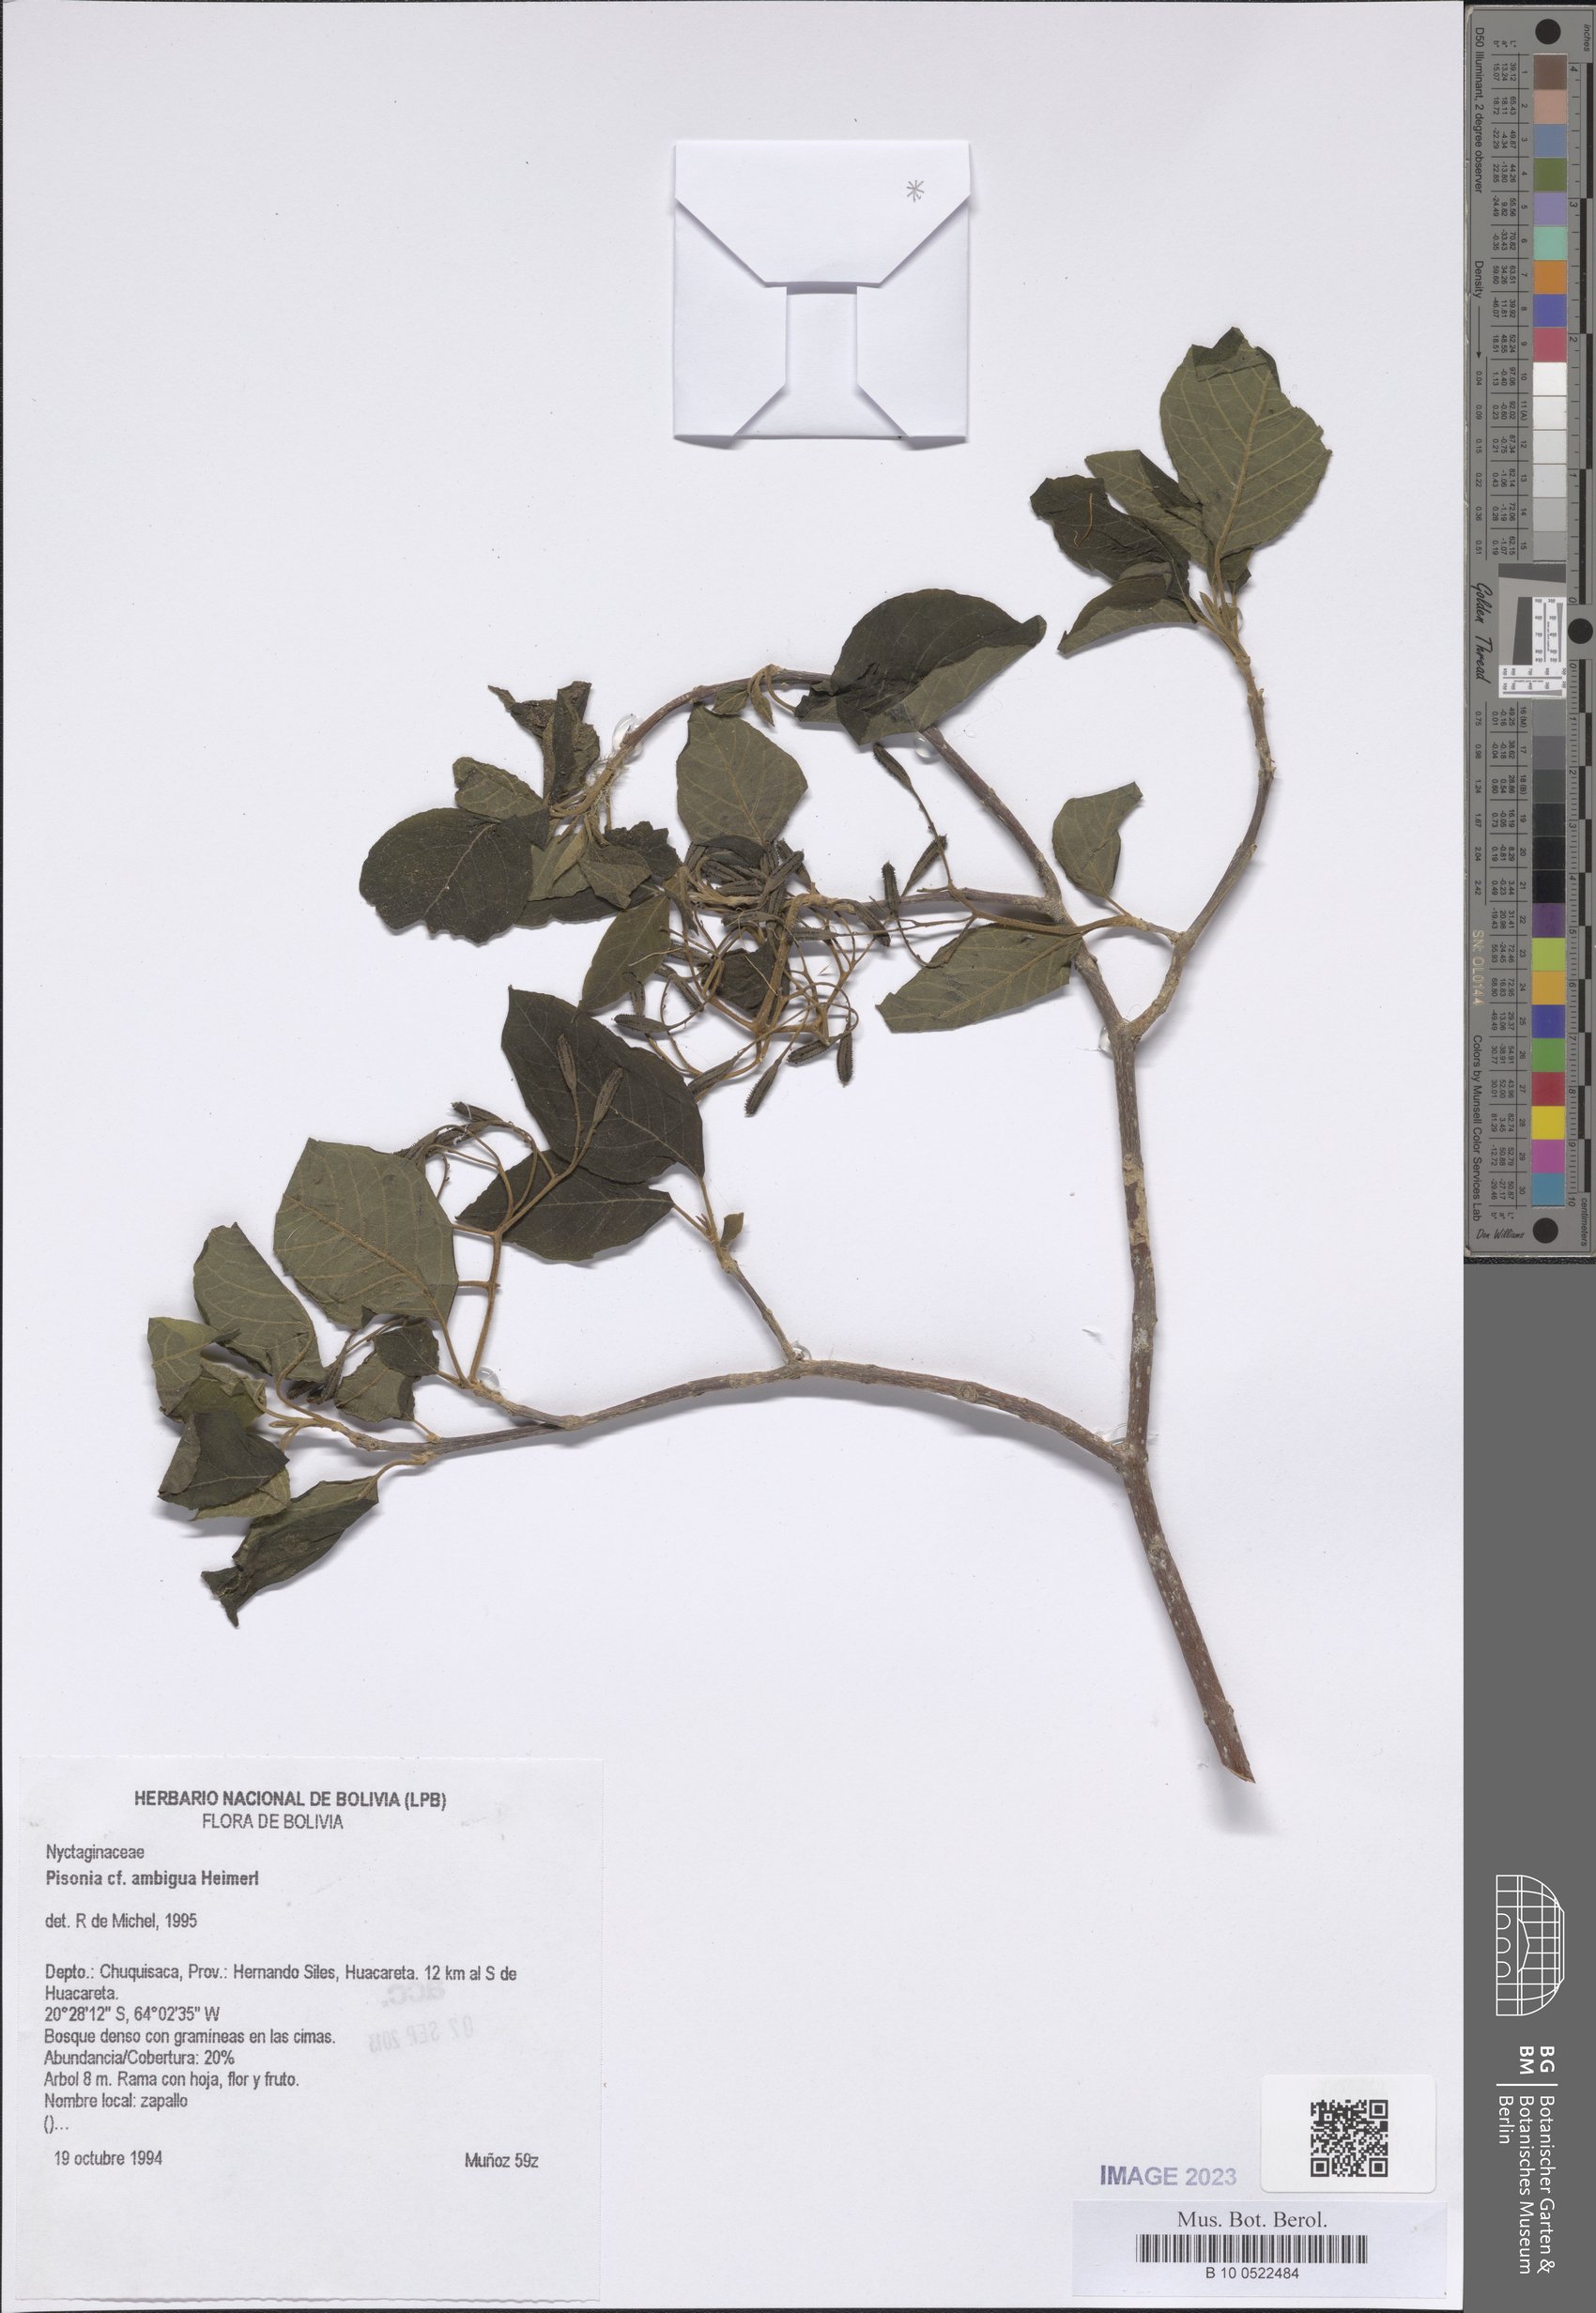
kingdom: Plantae
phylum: Tracheophyta
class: Magnoliopsida
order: Caryophyllales
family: Nyctaginaceae
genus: Pisonia
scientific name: Pisonia ambigua
